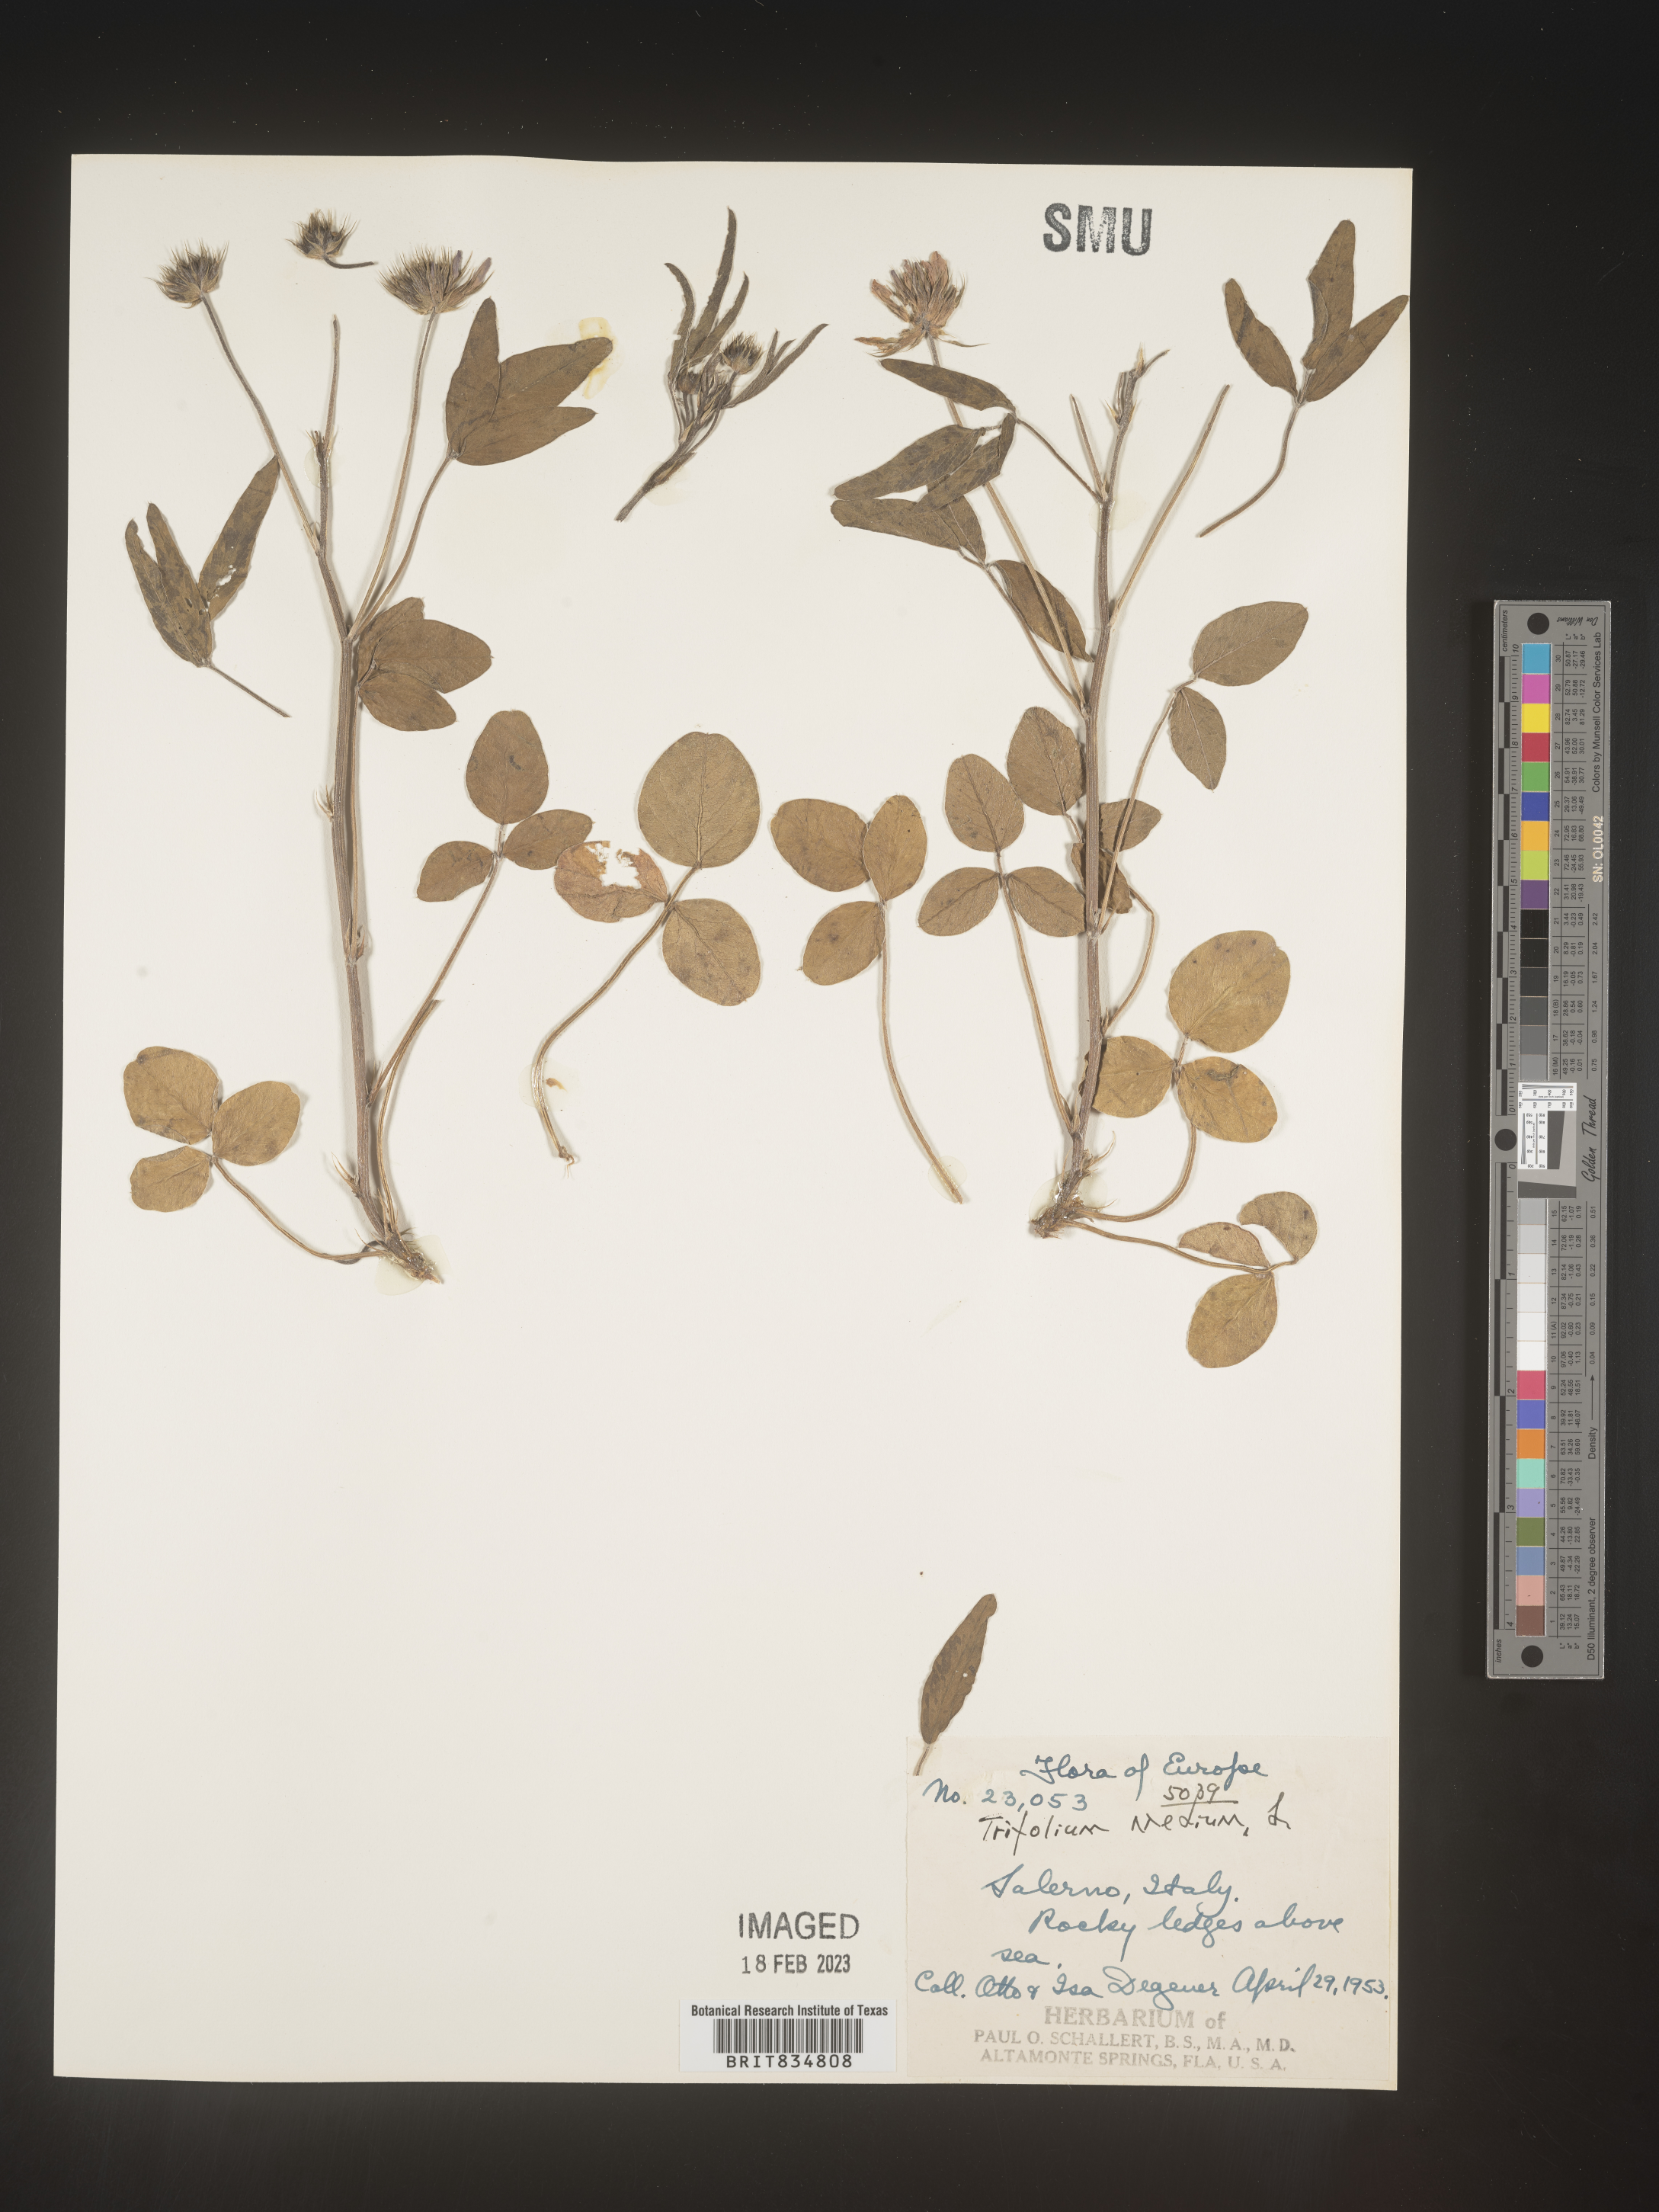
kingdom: Plantae
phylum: Tracheophyta
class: Magnoliopsida
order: Fabales
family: Fabaceae
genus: Trifolium
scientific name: Trifolium
